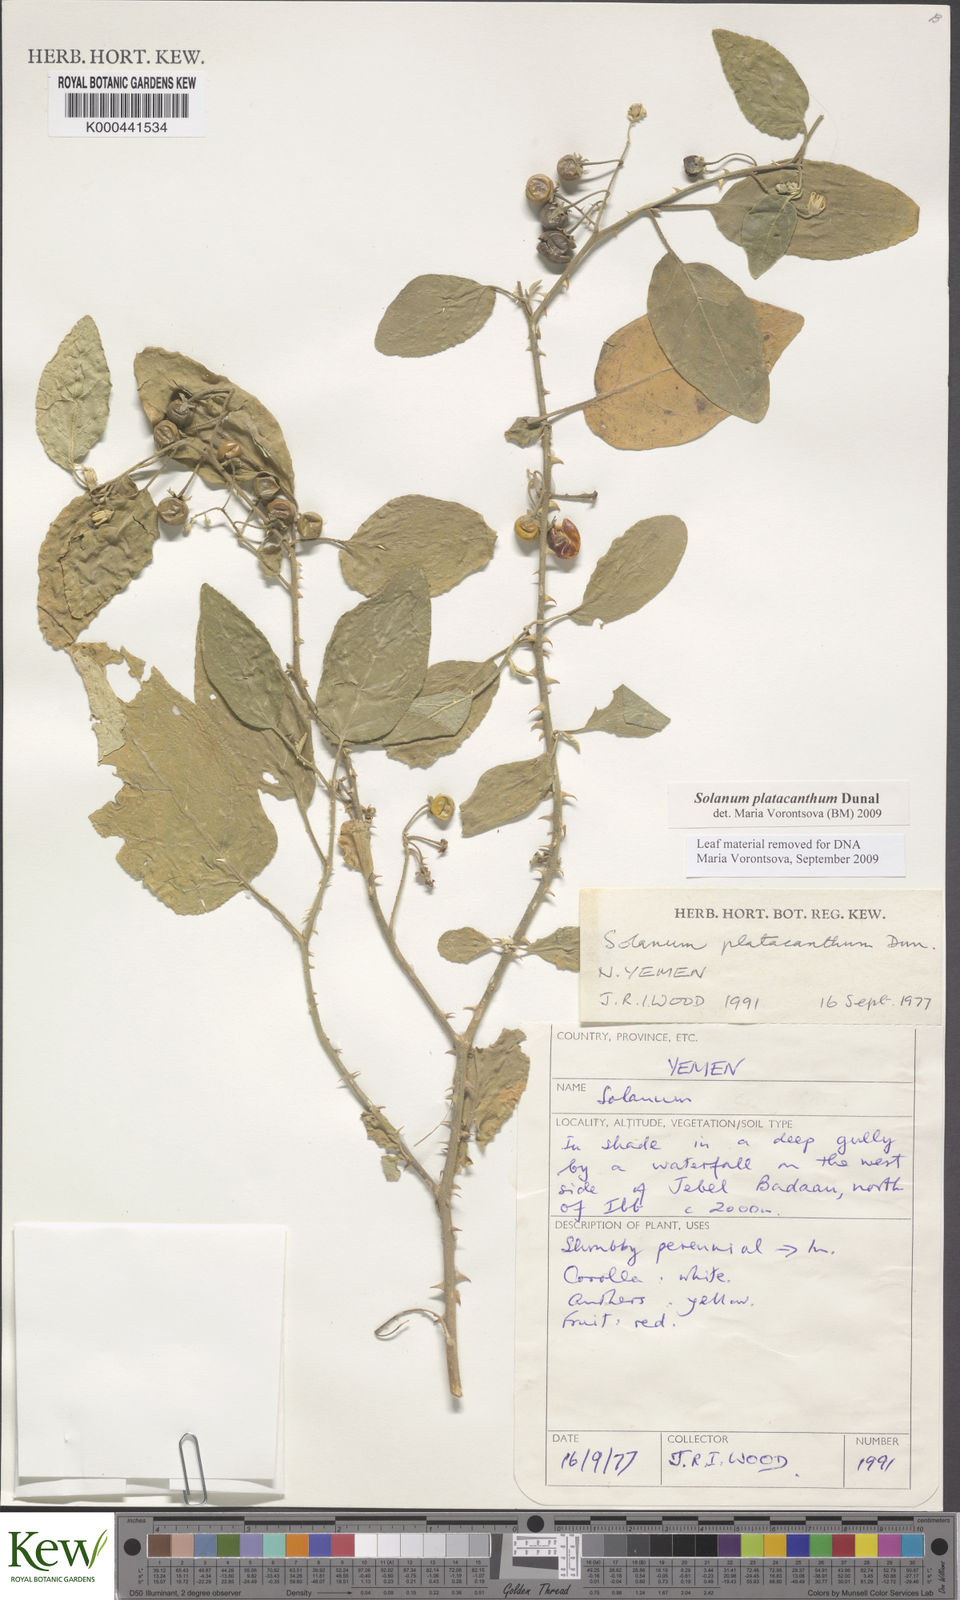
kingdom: Plantae
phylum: Tracheophyta
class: Magnoliopsida
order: Solanales
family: Solanaceae
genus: Solanum
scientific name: Solanum platacanthum
